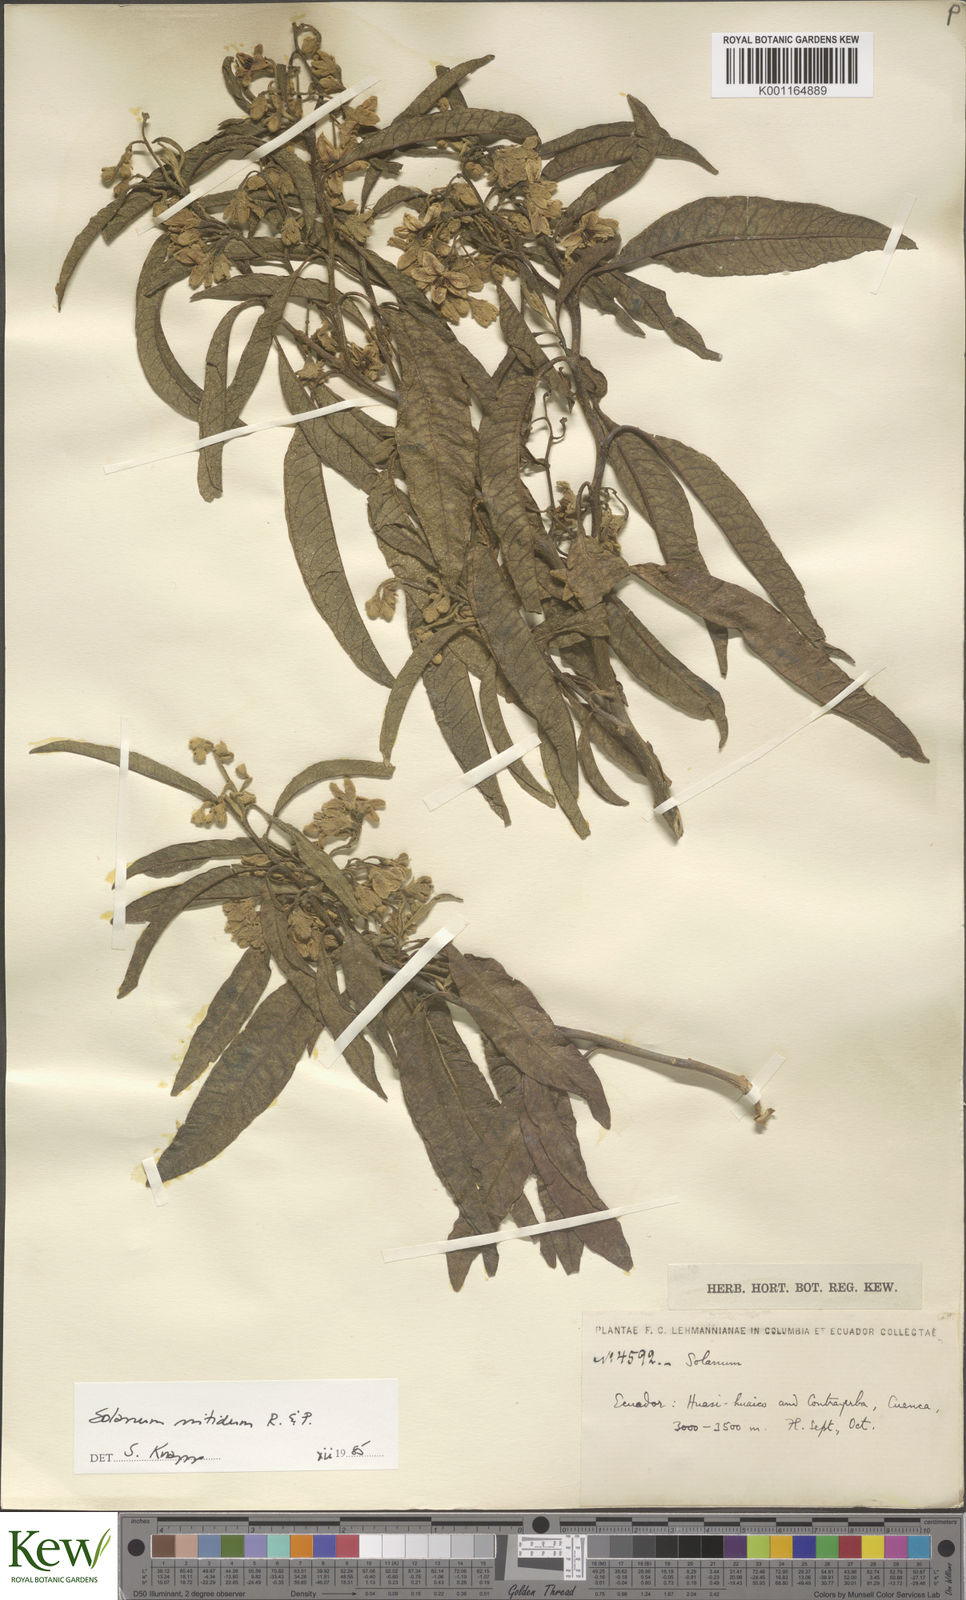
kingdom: Plantae
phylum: Tracheophyta
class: Magnoliopsida
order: Solanales
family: Solanaceae
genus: Solanum
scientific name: Solanum nitidum
